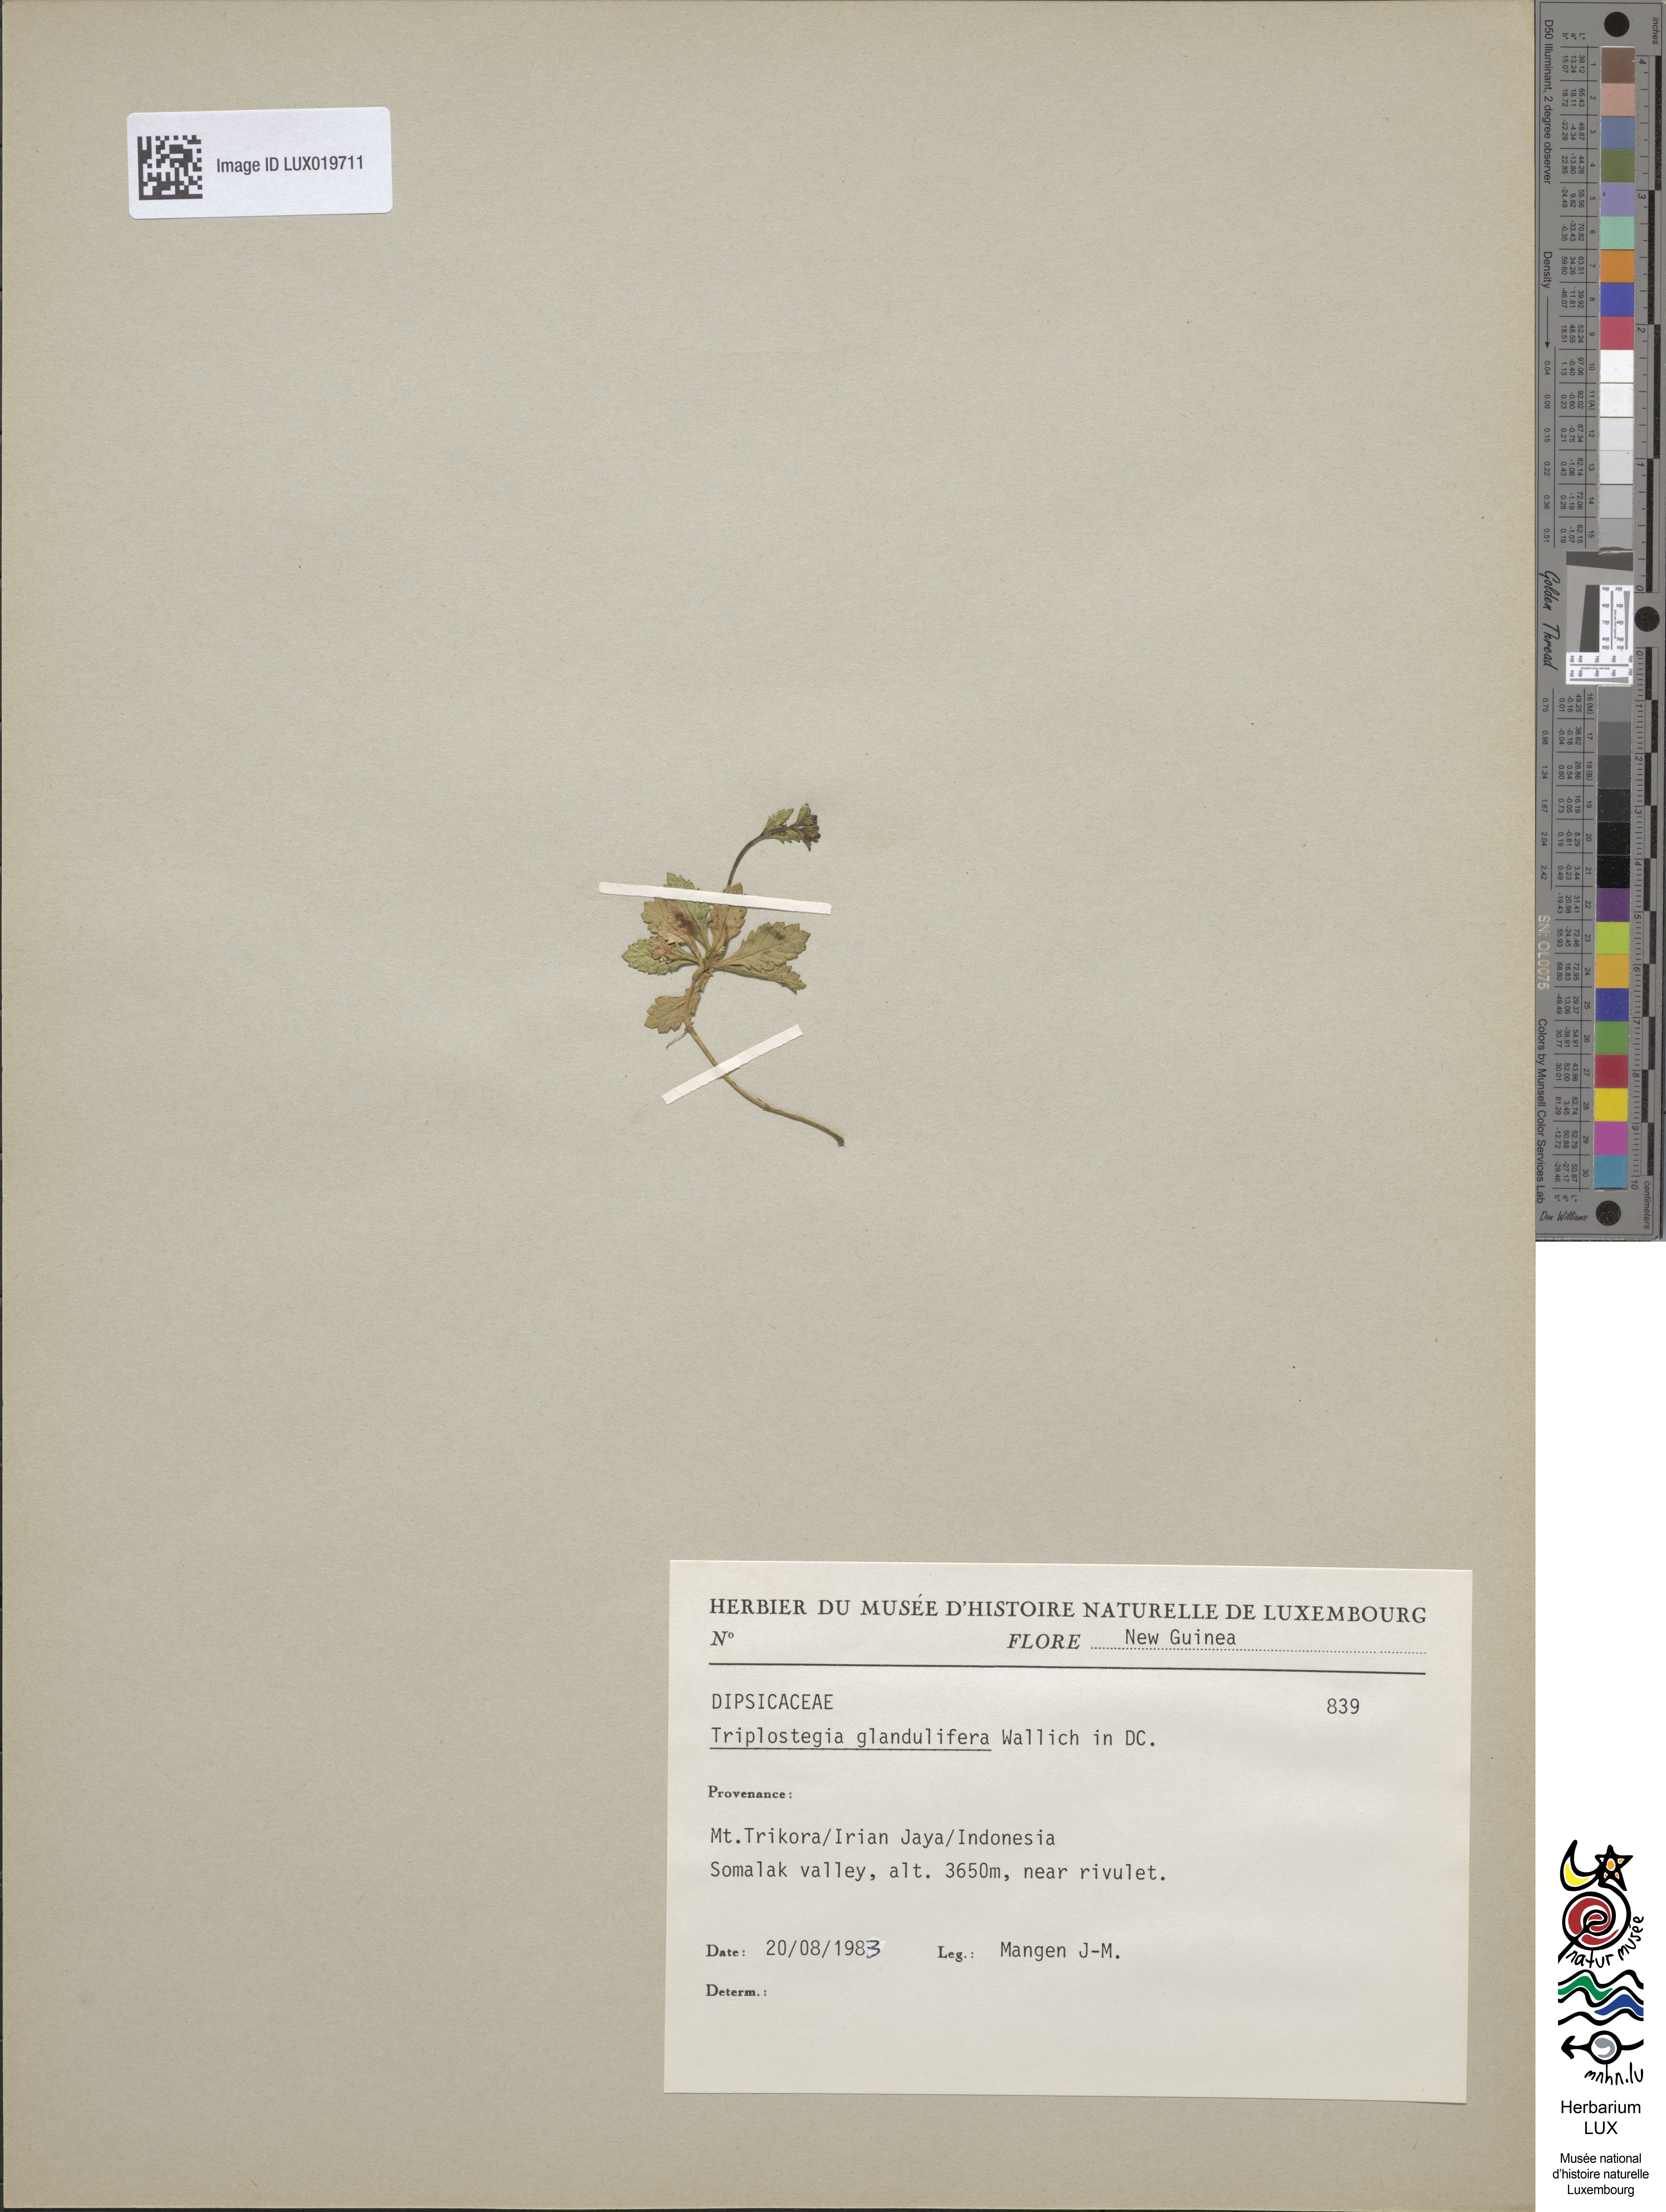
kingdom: Plantae
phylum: Tracheophyta
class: Magnoliopsida
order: Dipsacales
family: Caprifoliaceae
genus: Triplostegia
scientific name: Triplostegia glandulifera
